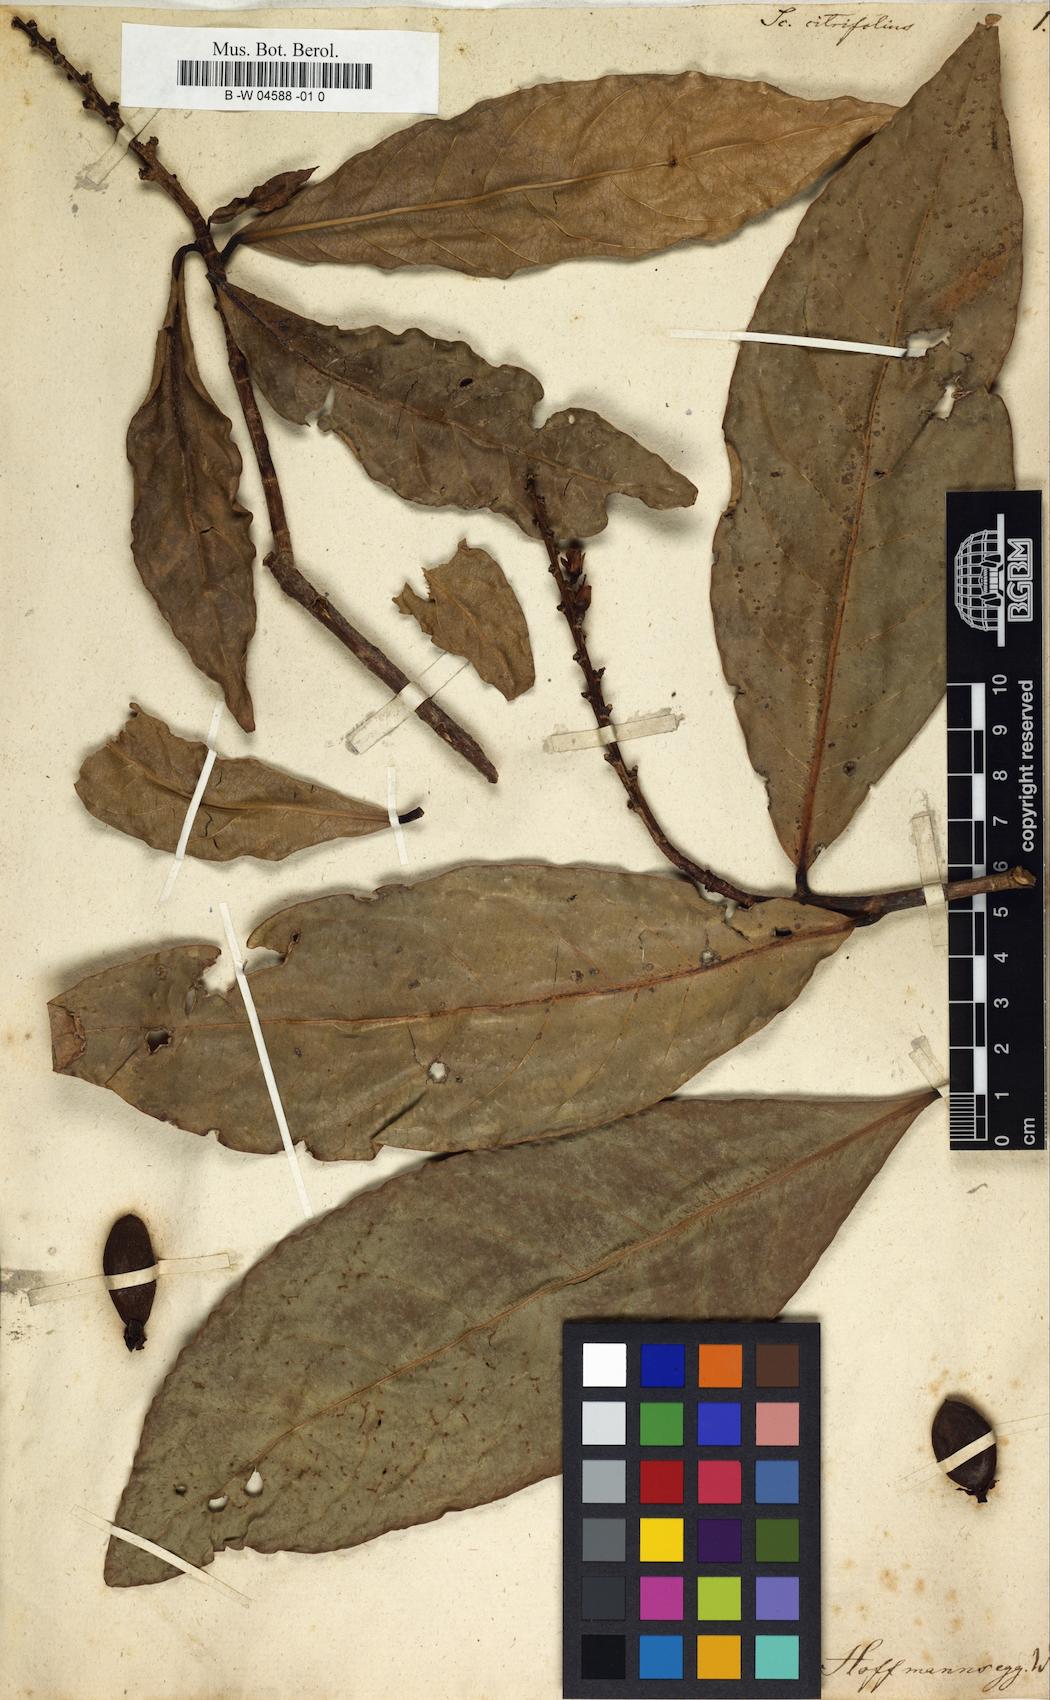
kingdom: Plantae
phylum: Tracheophyta
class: Magnoliopsida
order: Lamiales
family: Acanthaceae
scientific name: Acanthaceae
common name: Acanthaceae
